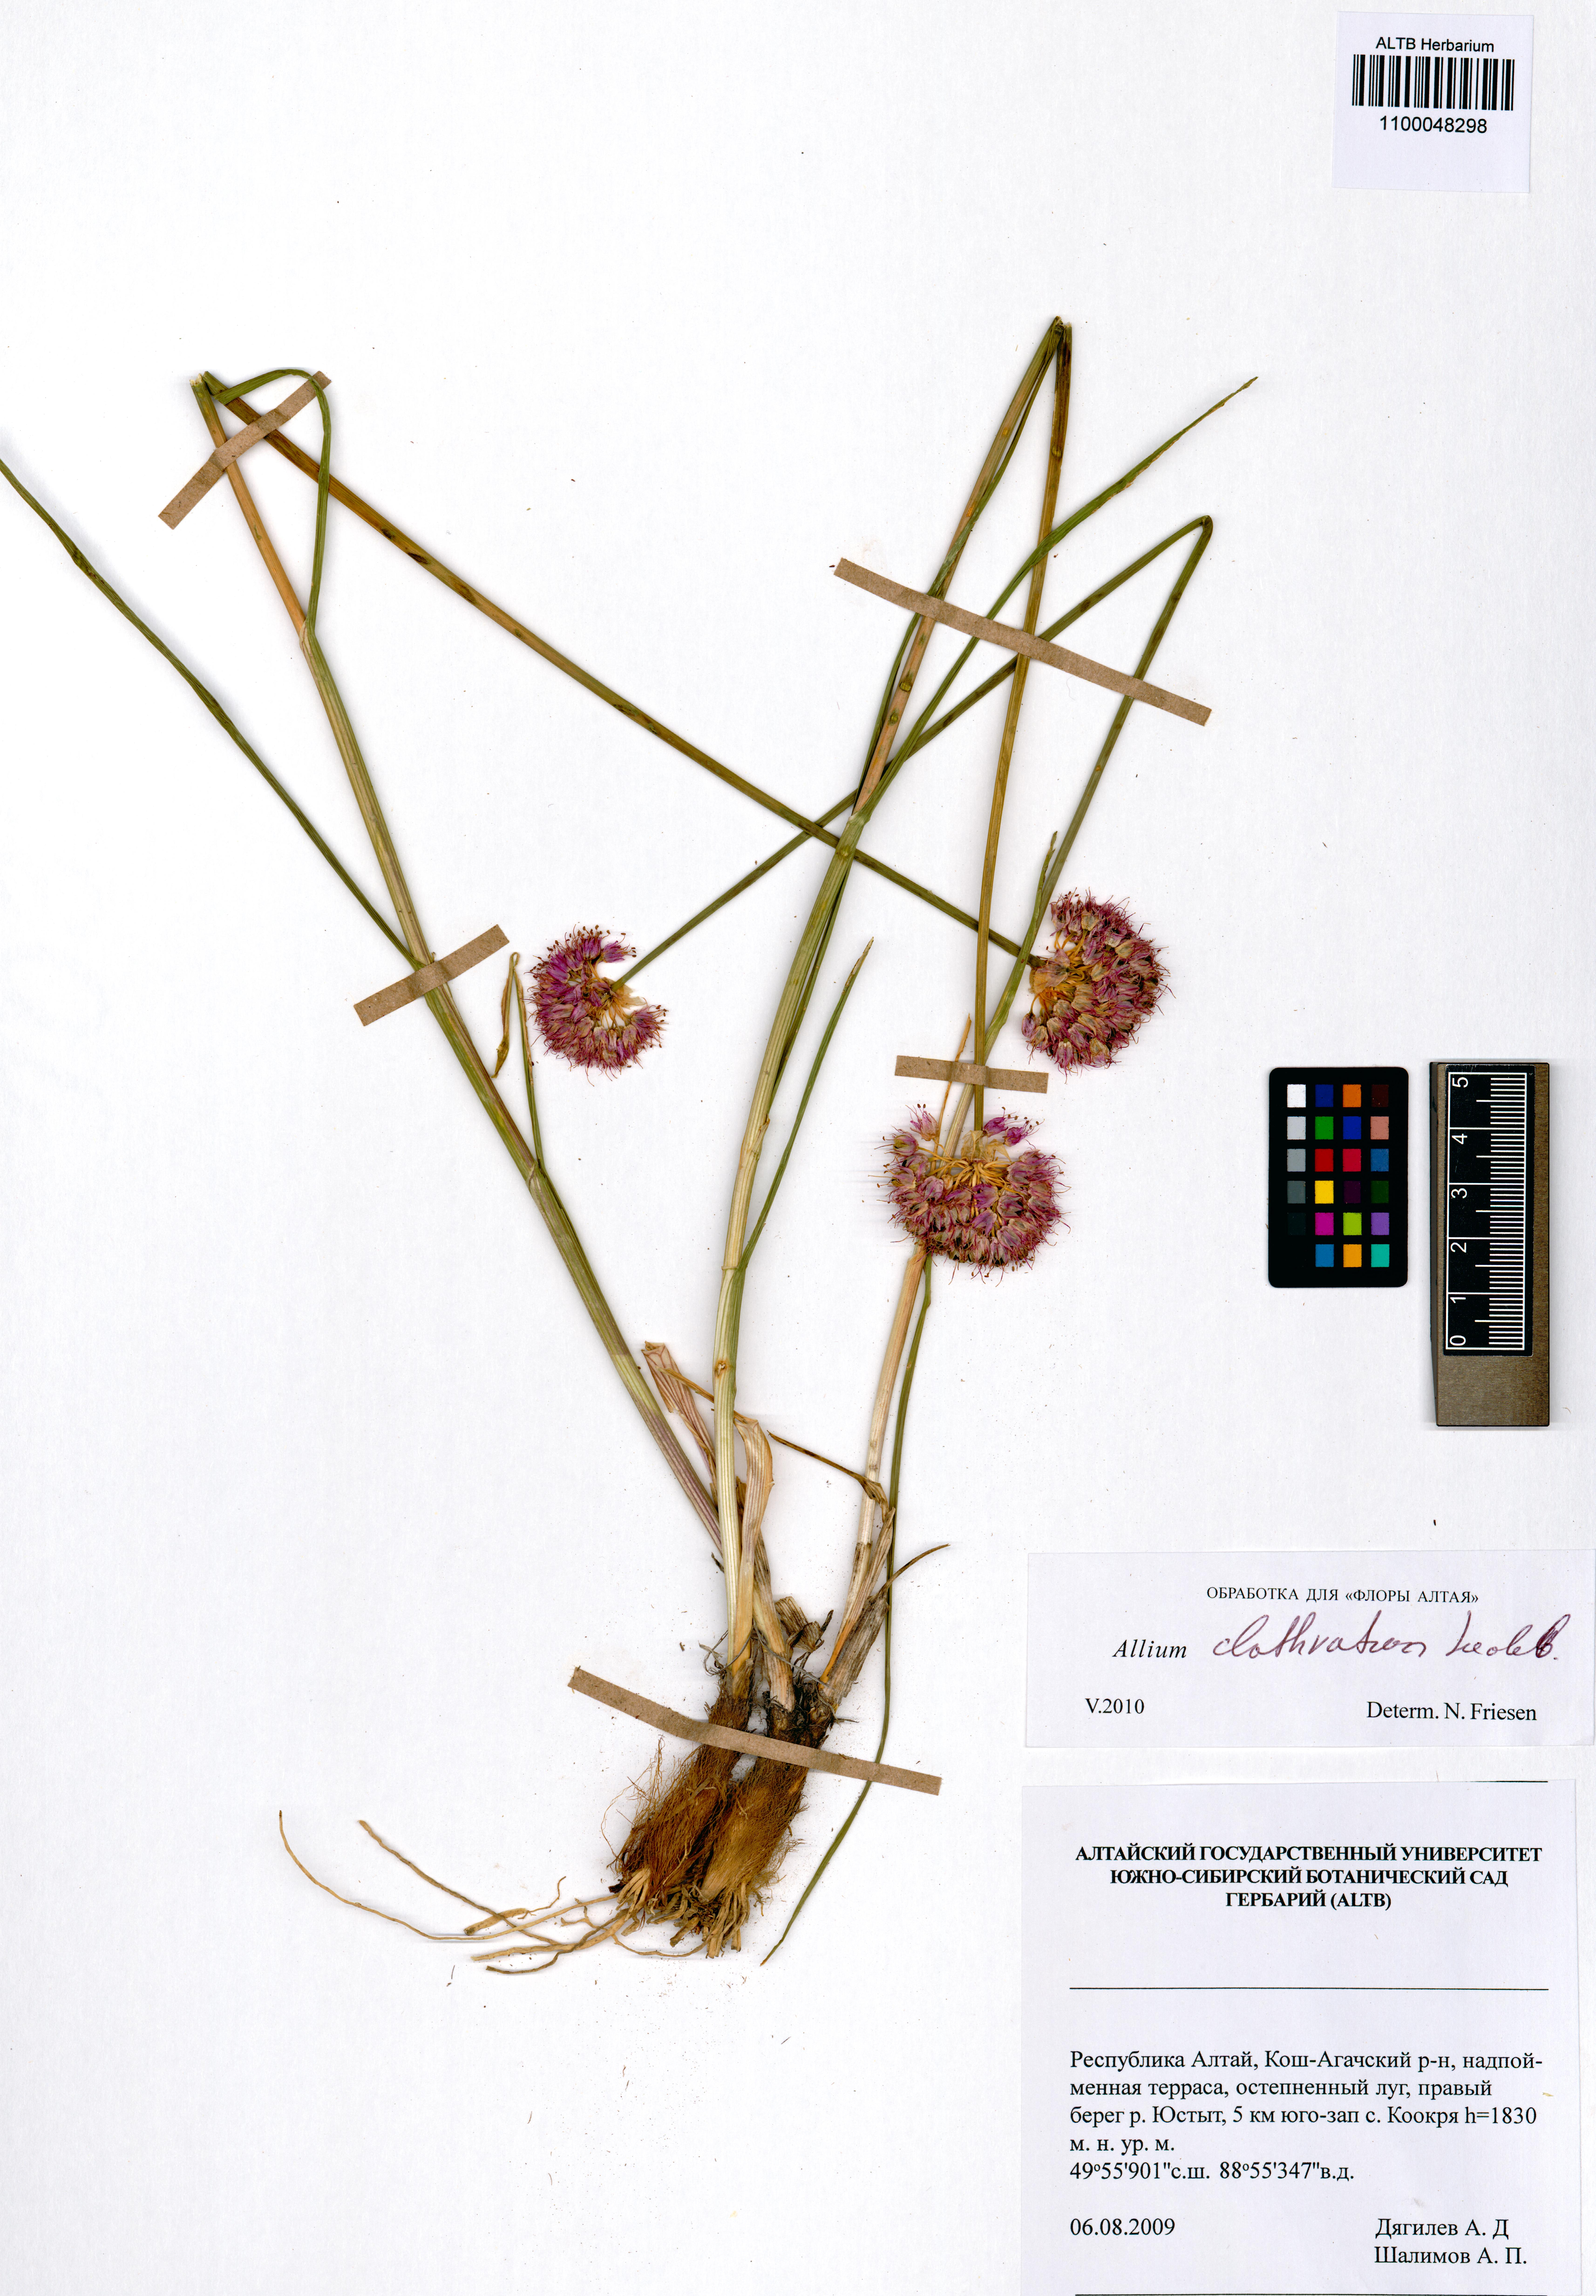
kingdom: Plantae
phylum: Tracheophyta
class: Liliopsida
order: Asparagales
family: Amaryllidaceae
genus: Allium
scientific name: Allium clathratum
